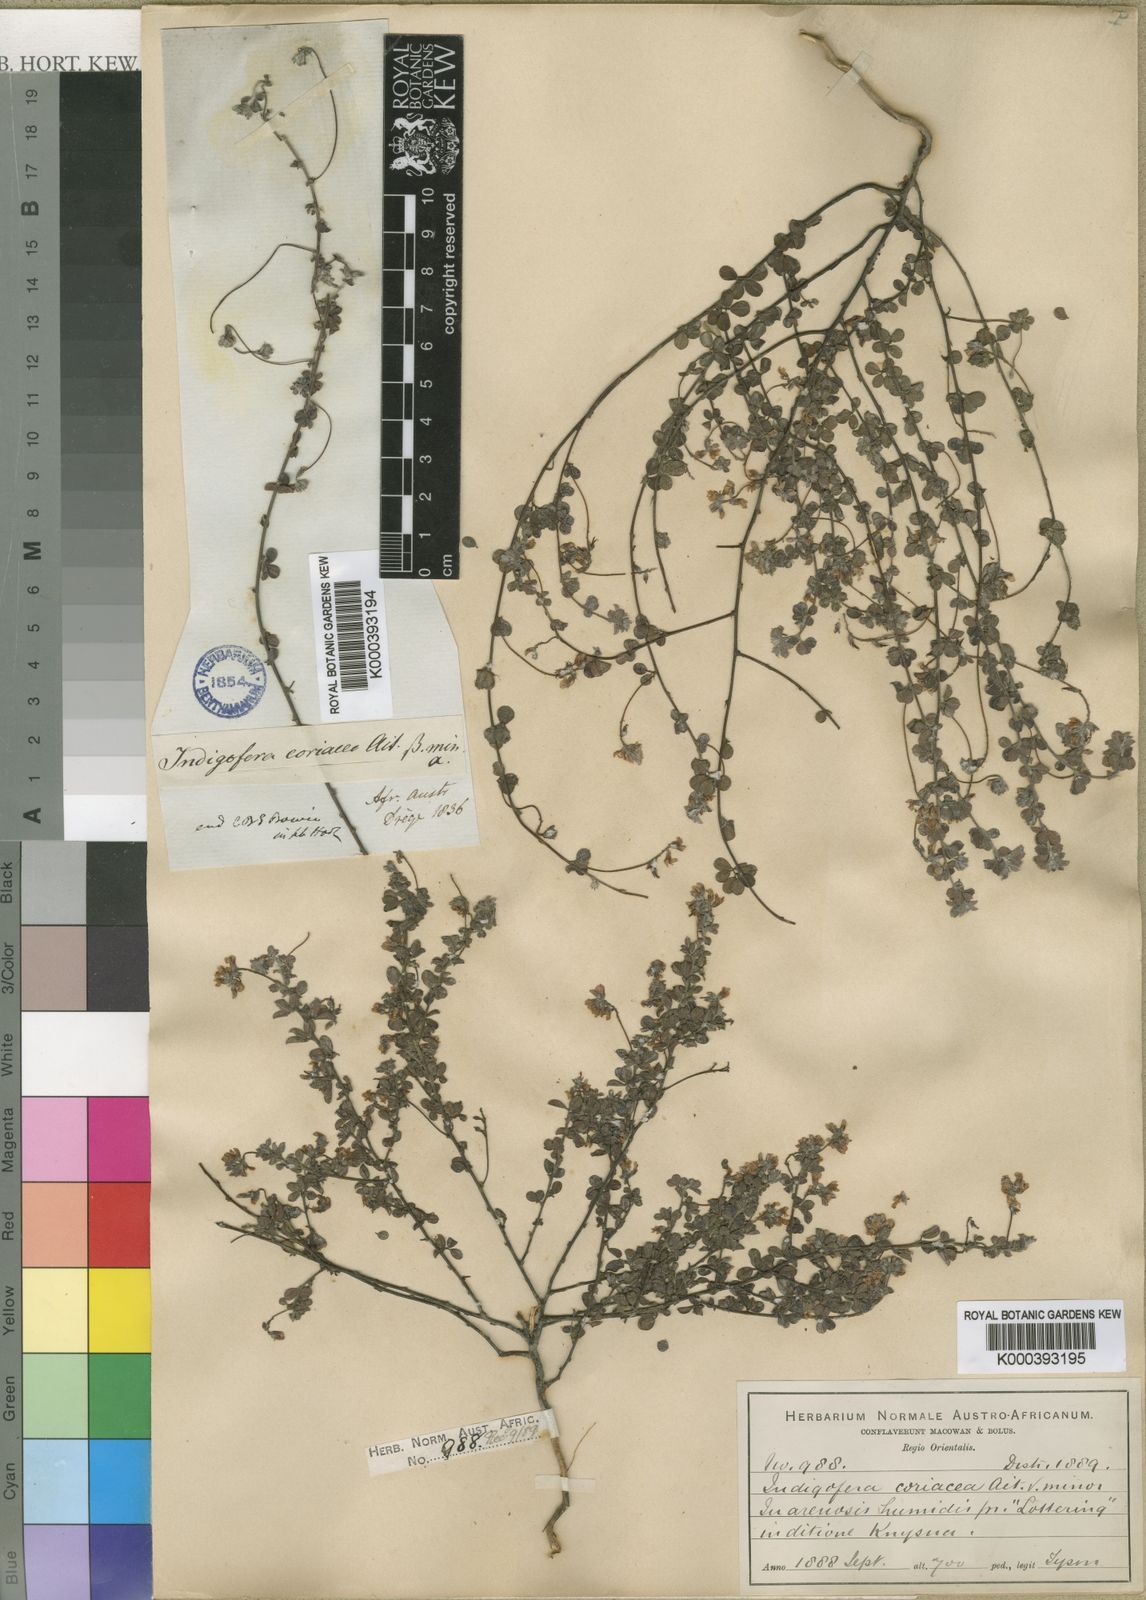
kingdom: Plantae
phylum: Tracheophyta
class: Magnoliopsida
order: Fabales
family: Fabaceae
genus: Indigofera
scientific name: Indigofera alopecuroides
